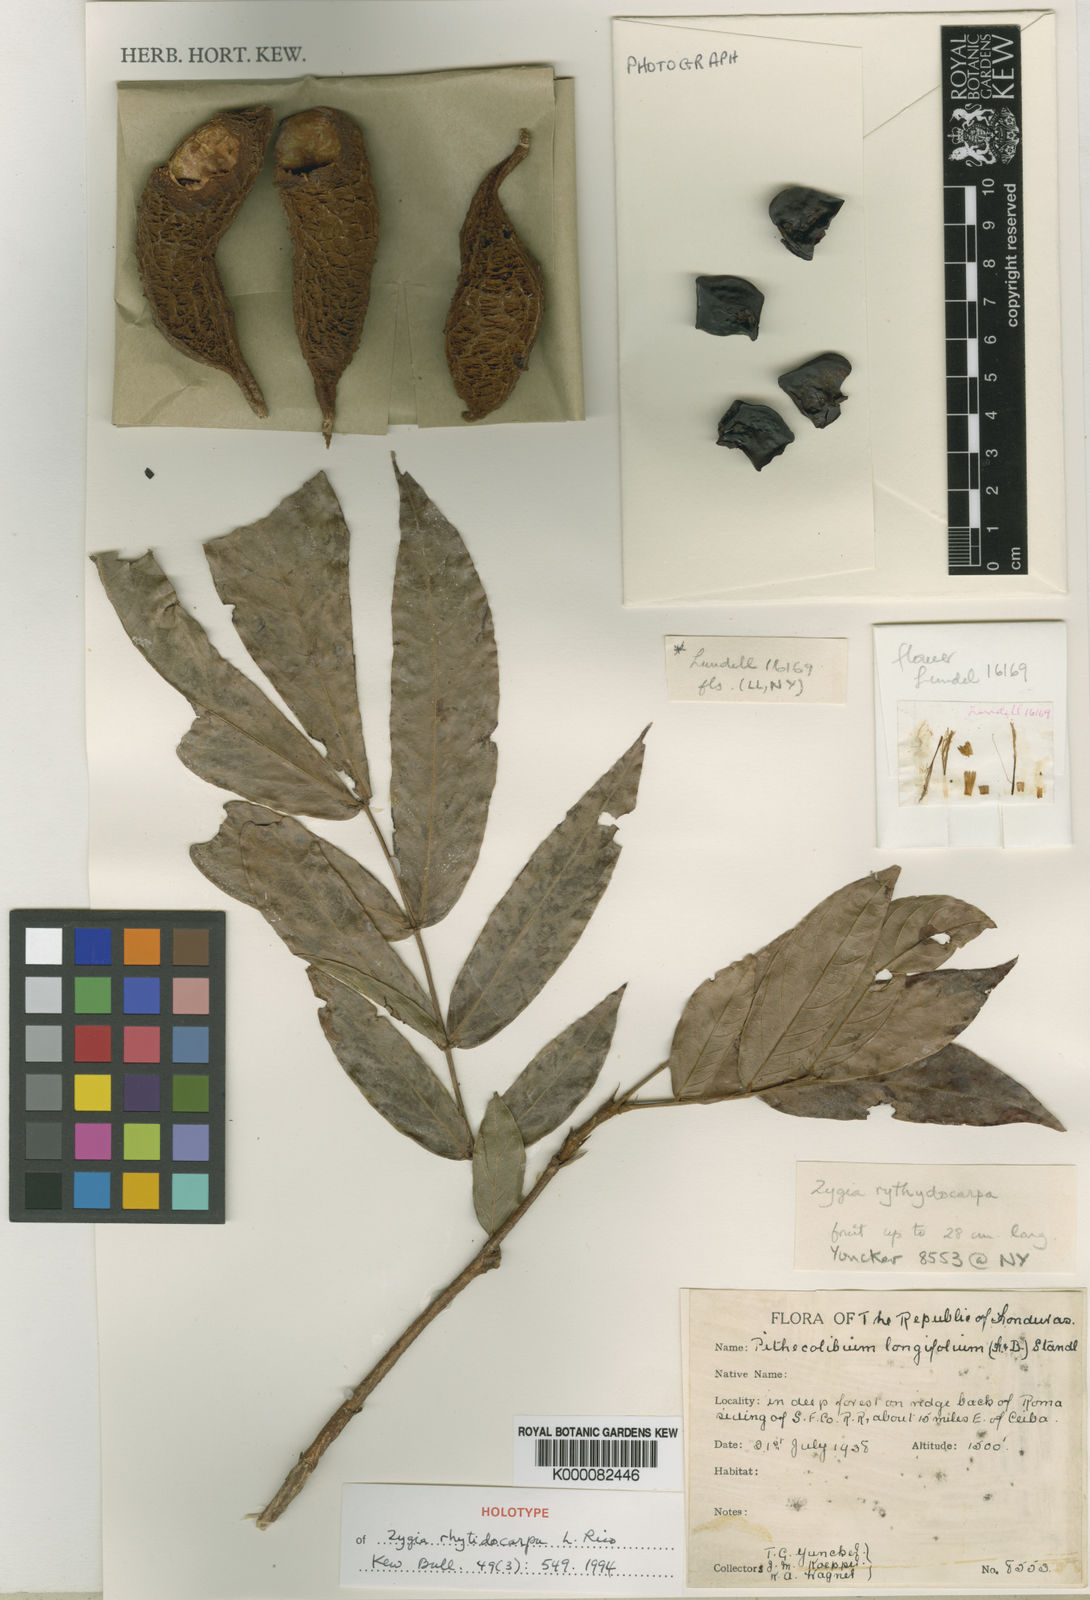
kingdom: Plantae
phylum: Tracheophyta
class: Magnoliopsida
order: Fabales
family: Fabaceae
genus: Zygia
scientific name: Zygia rhytidocarpa
